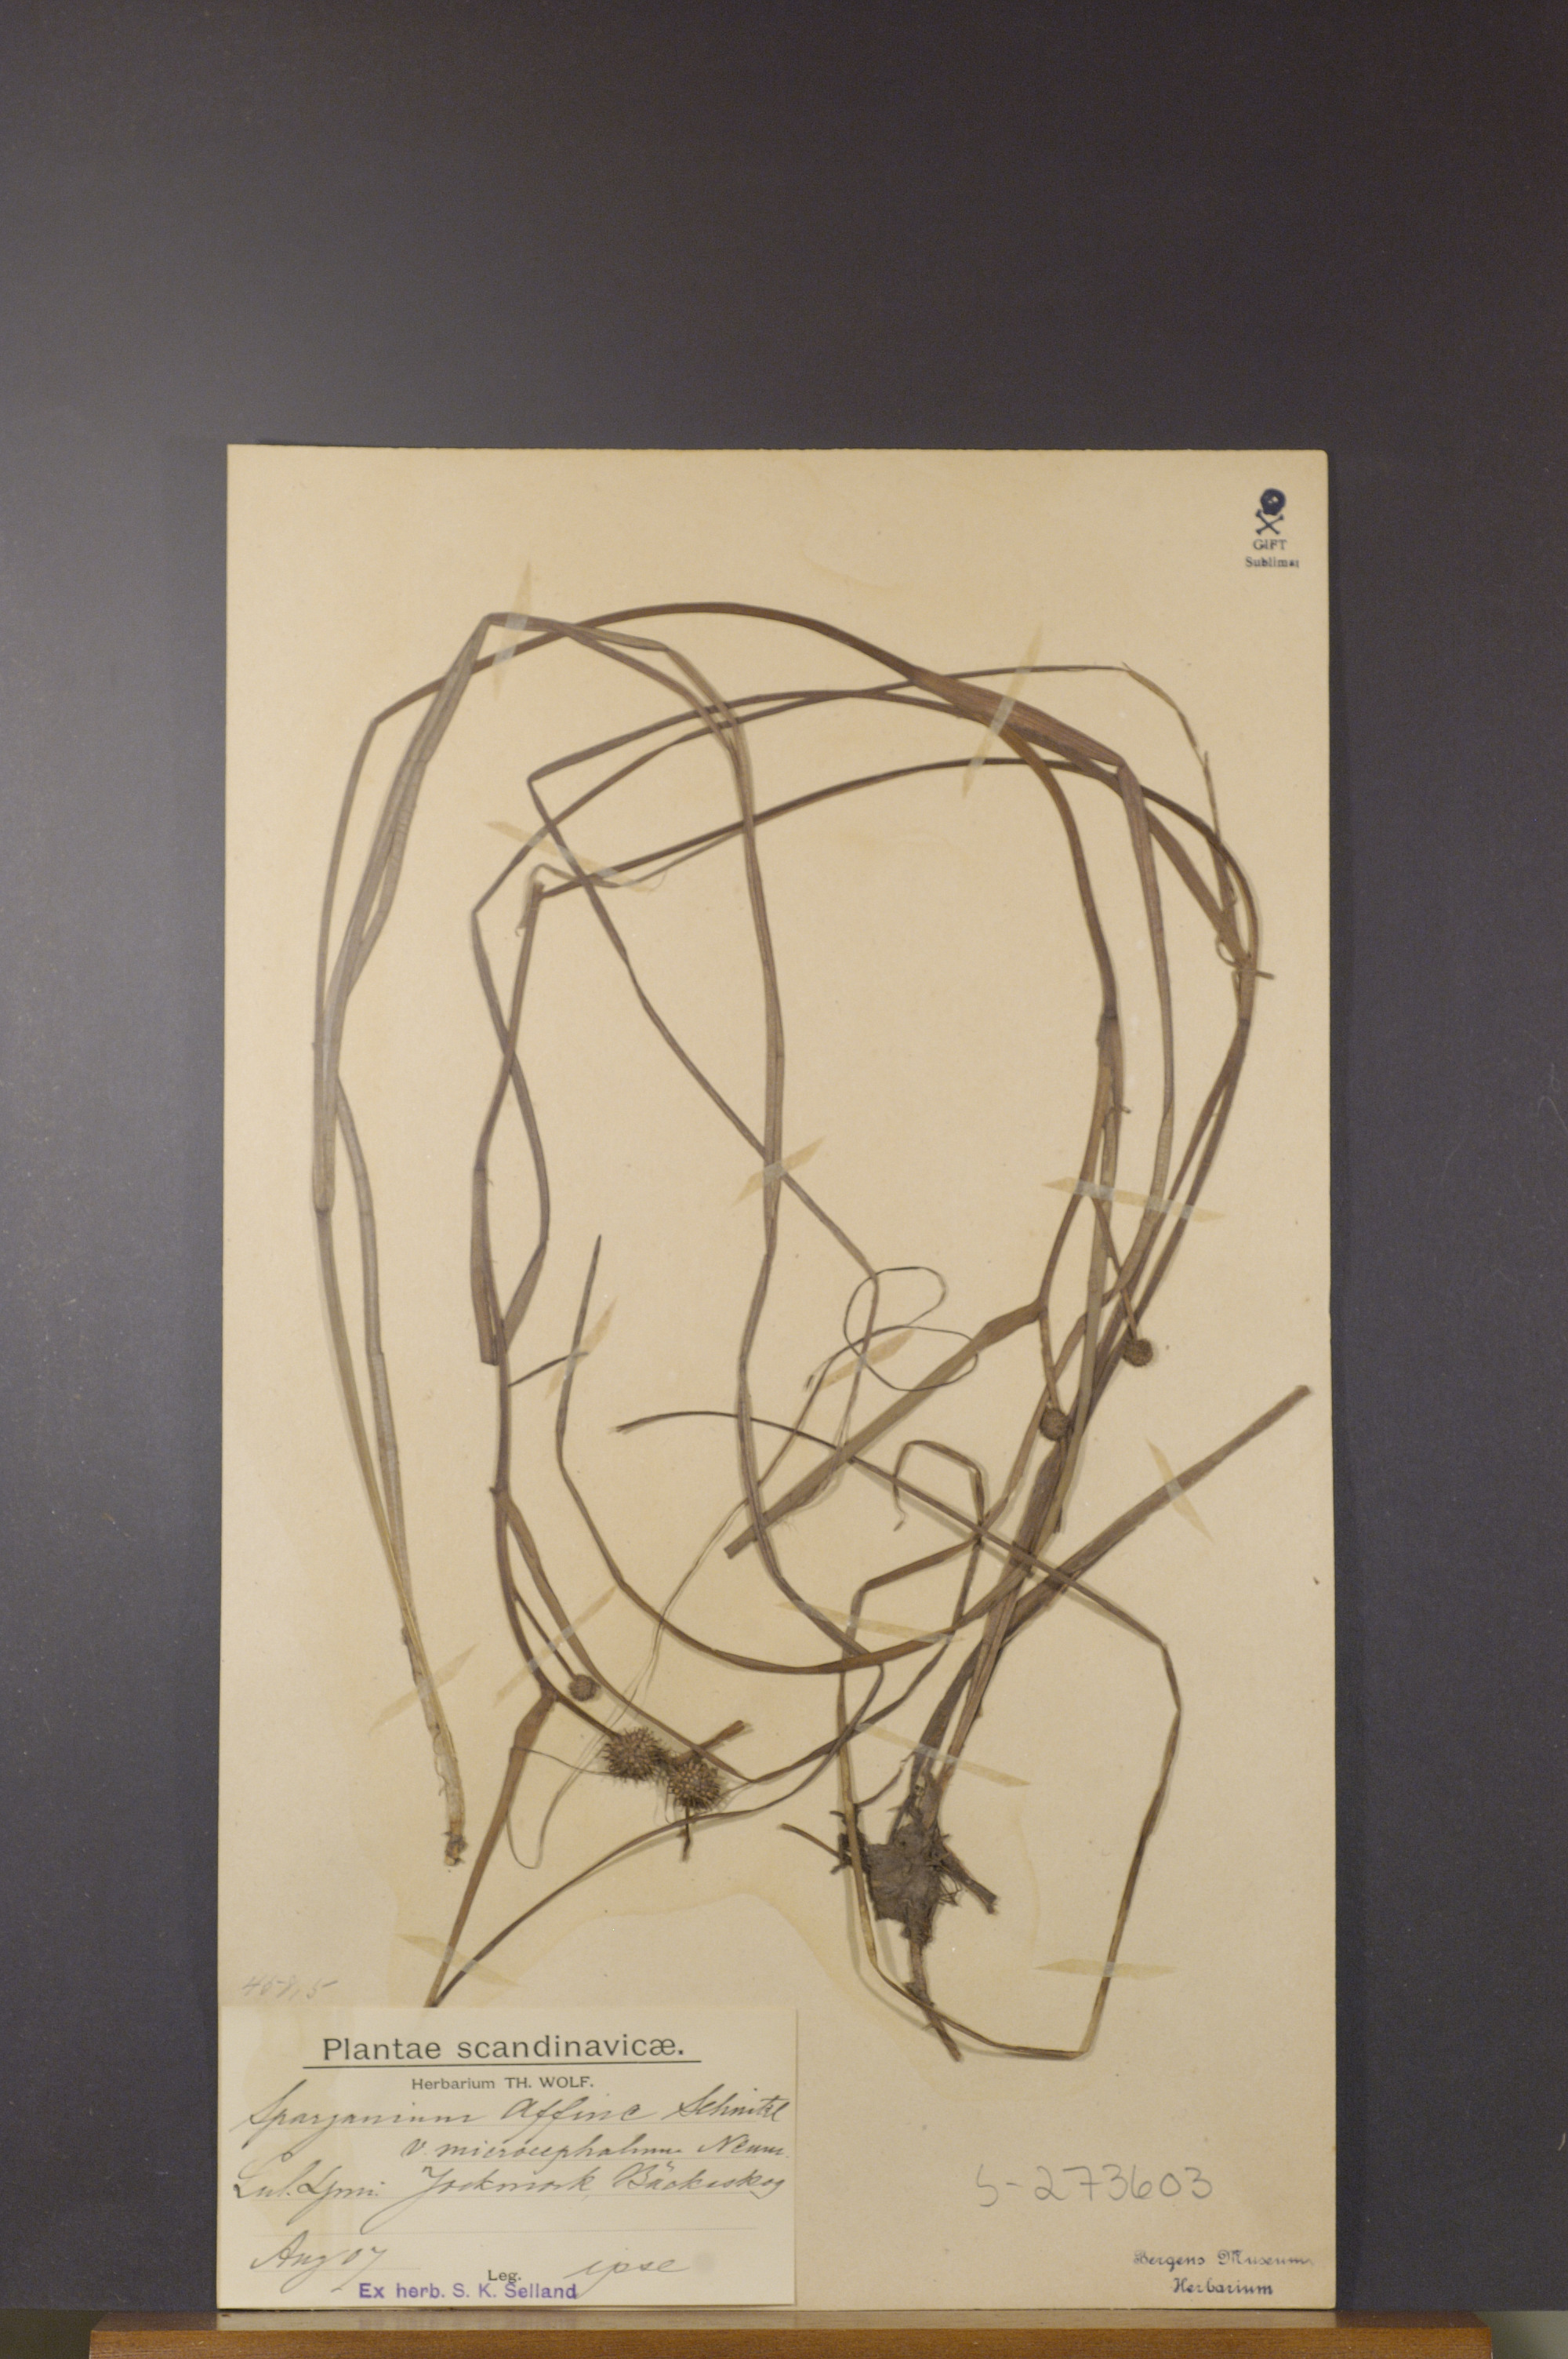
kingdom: Plantae
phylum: Tracheophyta
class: Liliopsida
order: Poales
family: Typhaceae
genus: Sparganium
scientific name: Sparganium angustifolium
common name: Floating bur-reed
